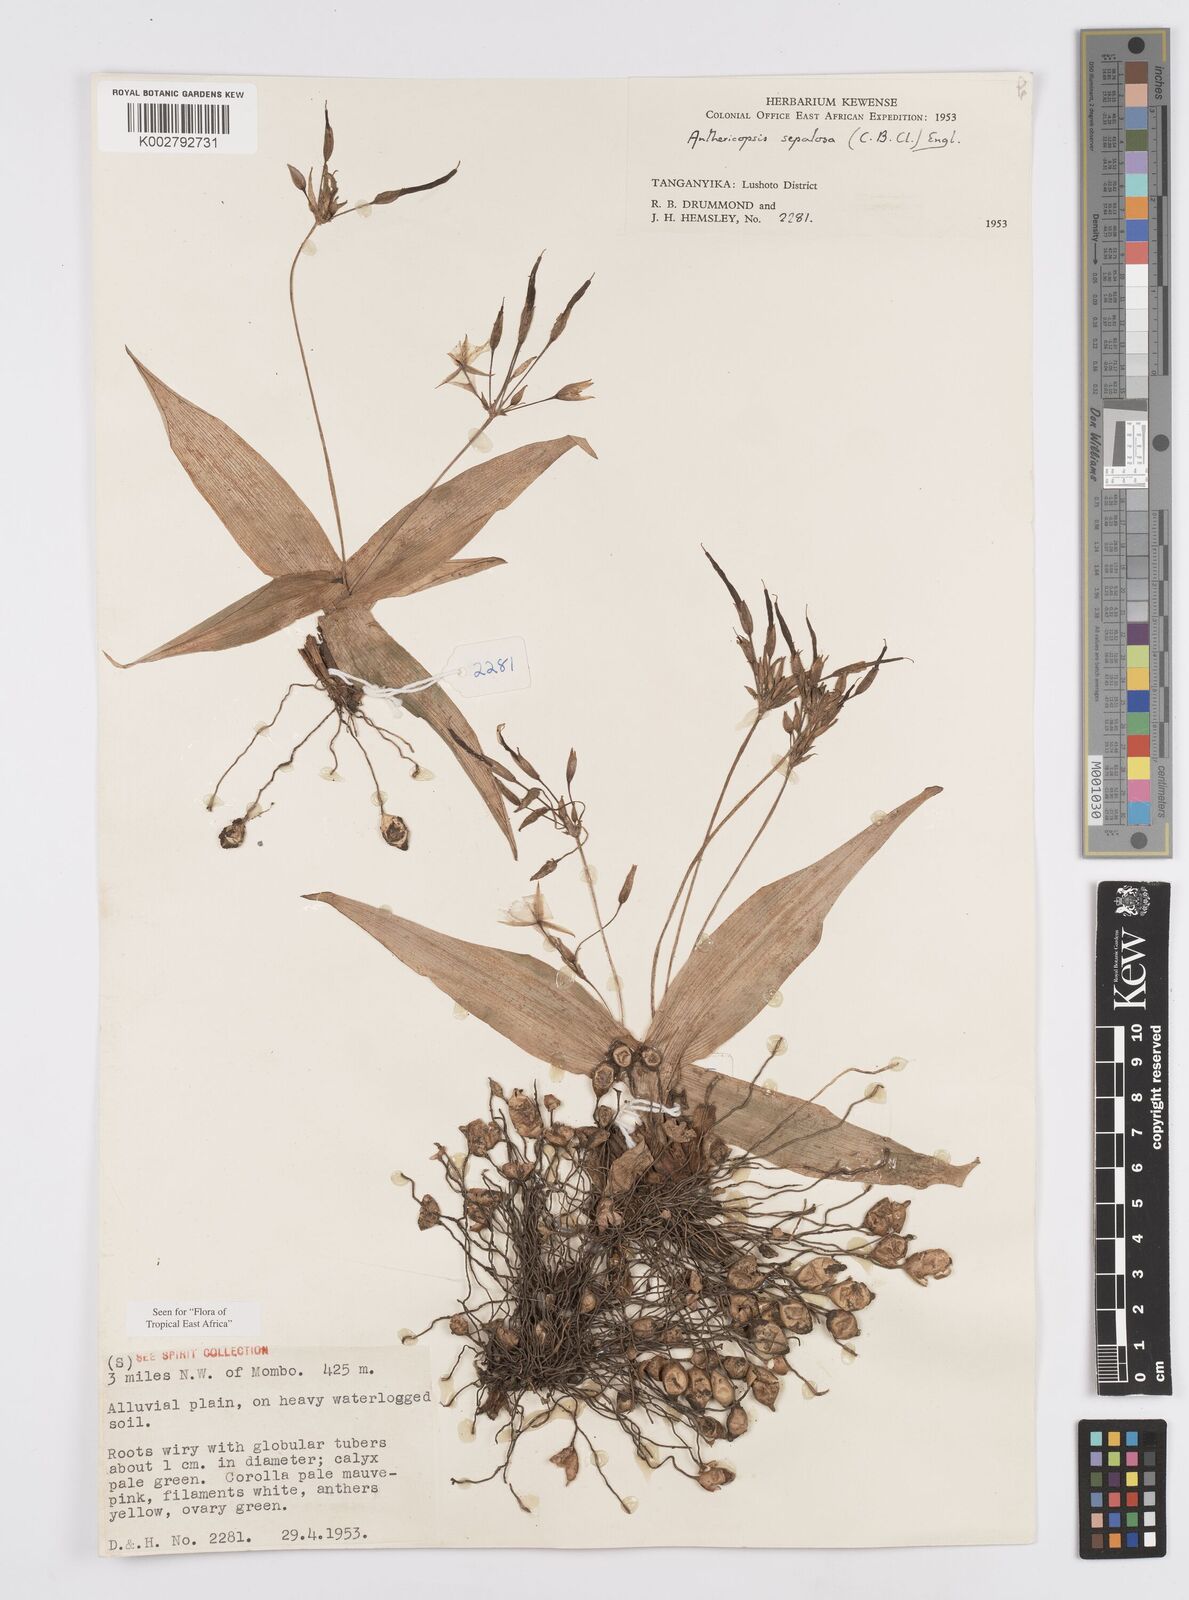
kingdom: Plantae
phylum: Tracheophyta
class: Liliopsida
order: Commelinales
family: Commelinaceae
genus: Anthericopsis
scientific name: Anthericopsis sepalosa
